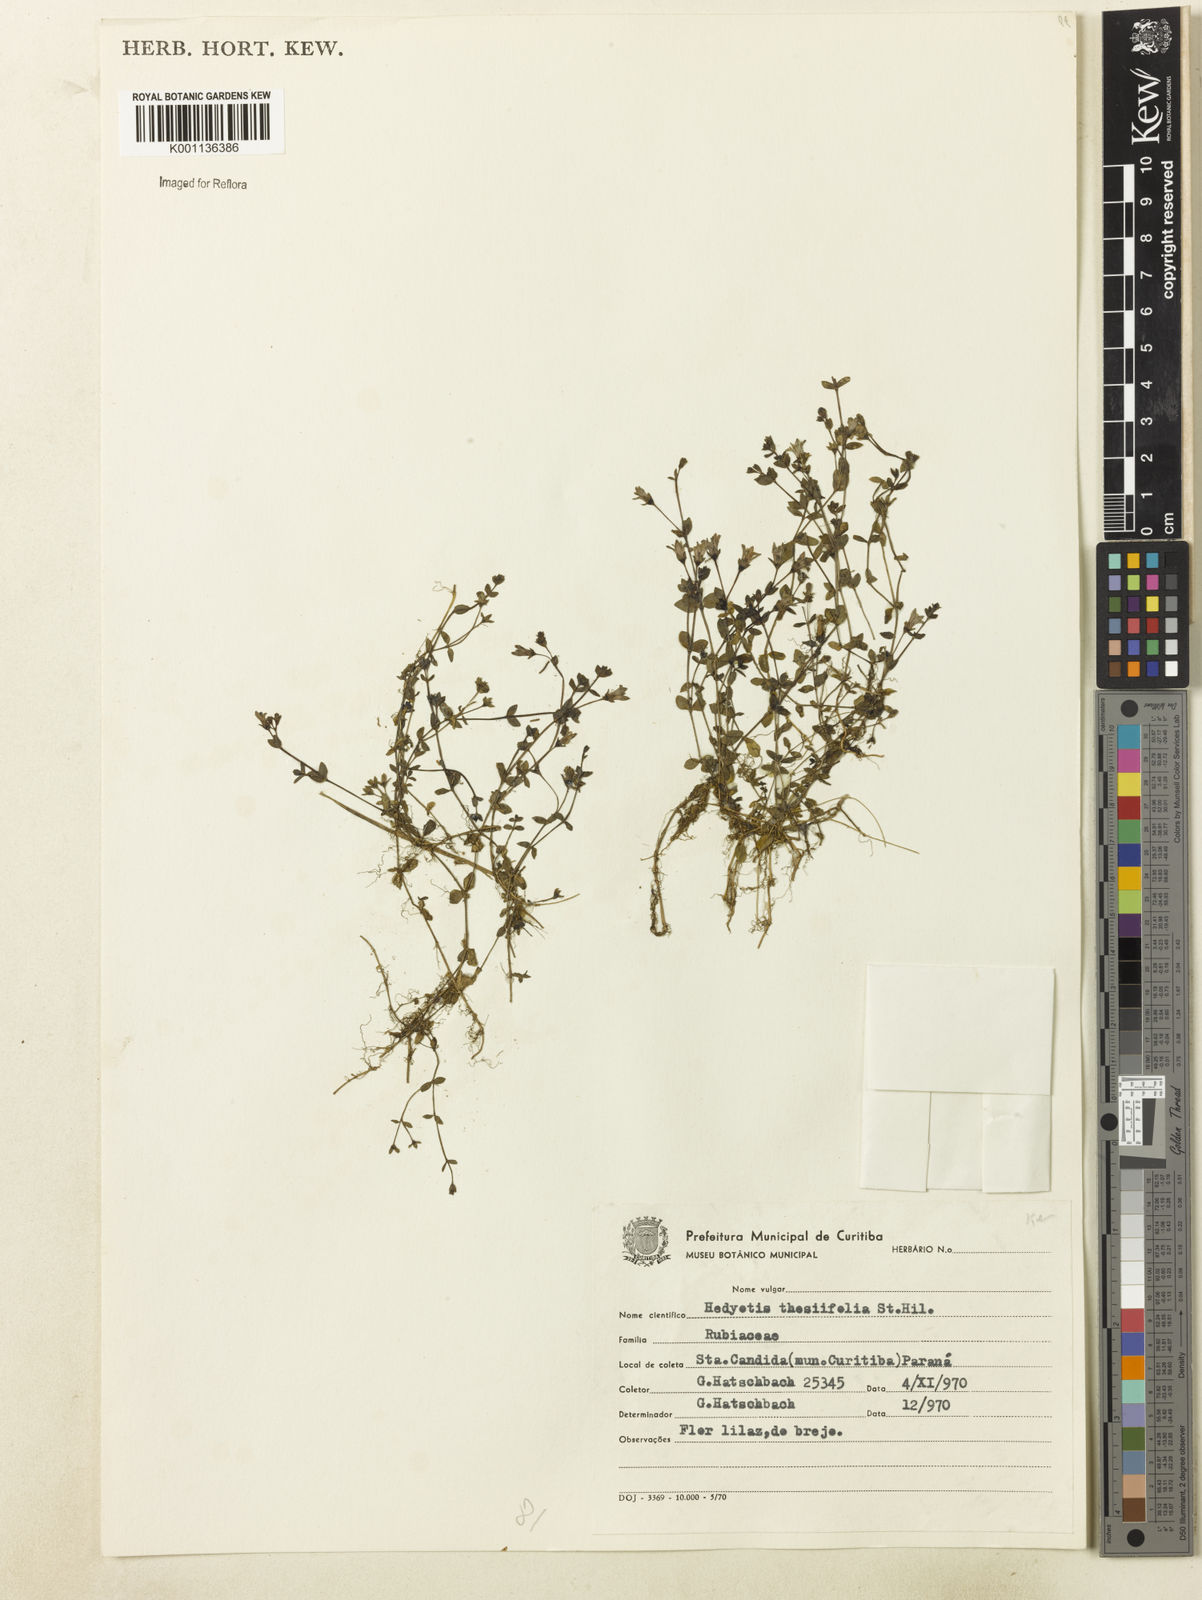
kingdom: Plantae
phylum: Tracheophyta
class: Magnoliopsida
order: Gentianales
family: Rubiaceae
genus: Oldenlandia
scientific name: Oldenlandia salzmannii
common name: Salzmann's mille graines
